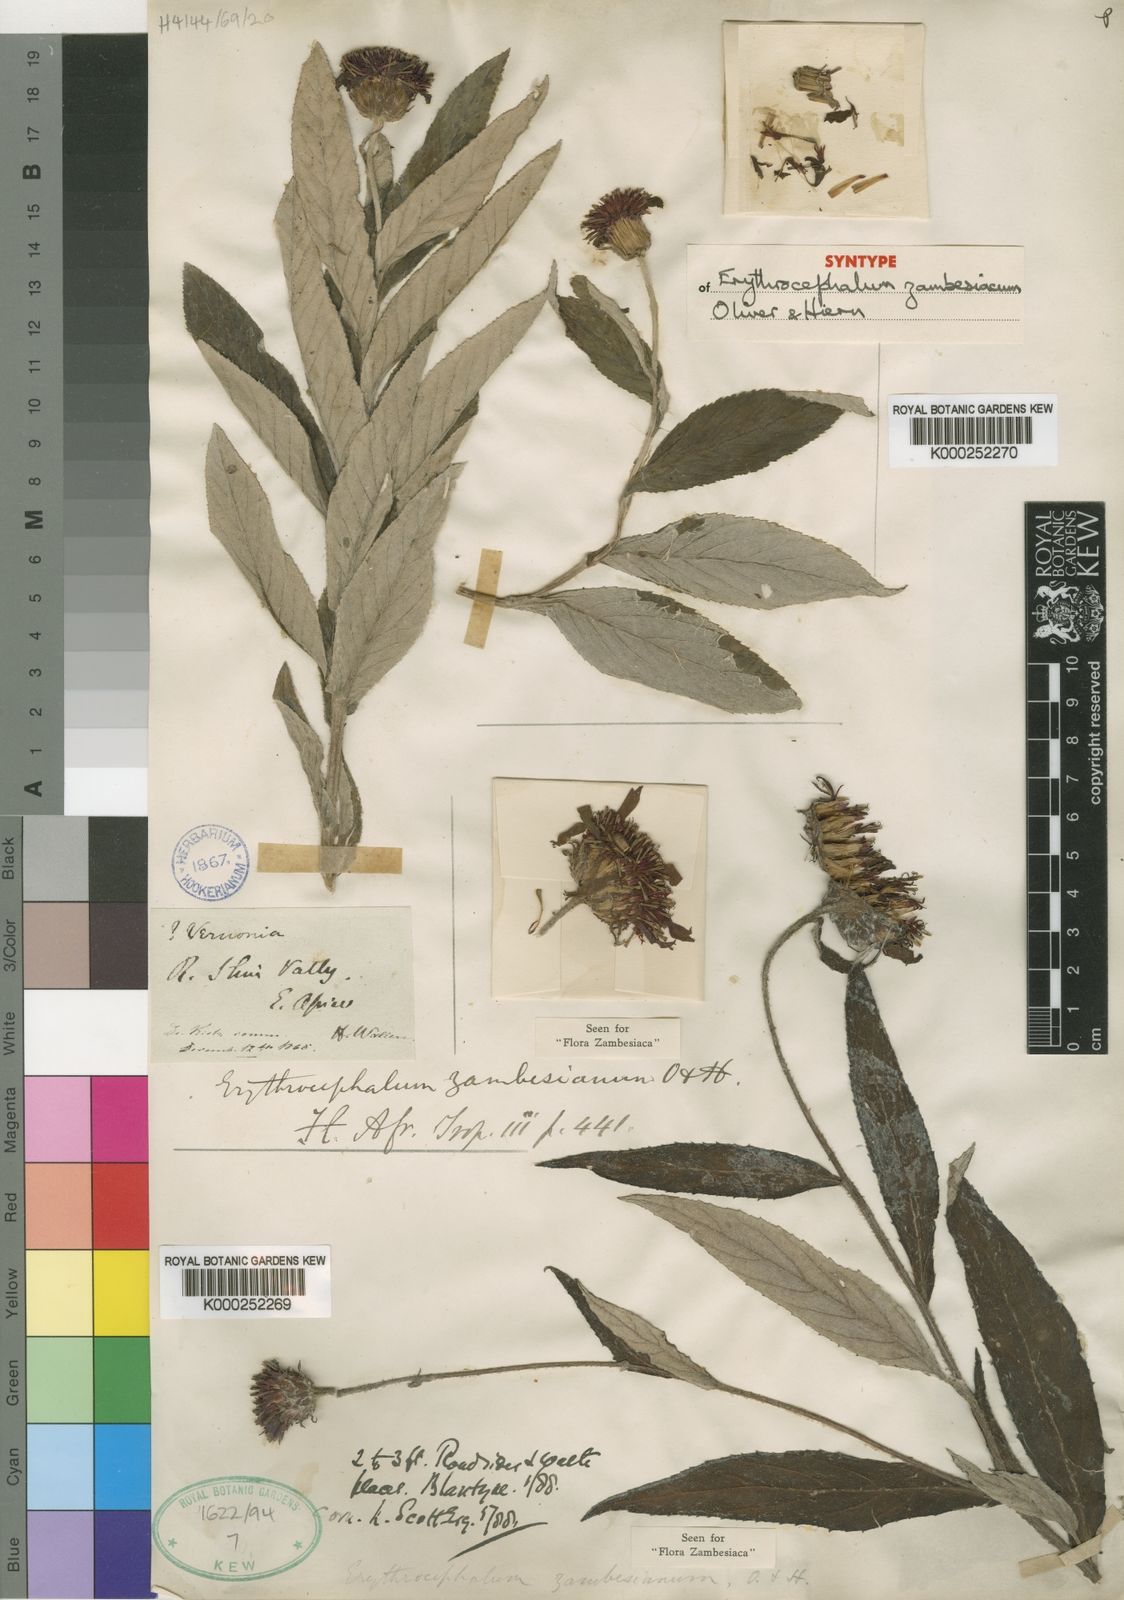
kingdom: Plantae
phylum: Tracheophyta
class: Magnoliopsida
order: Asterales
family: Asteraceae
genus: Erythrocephalum
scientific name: Erythrocephalum longifolium
